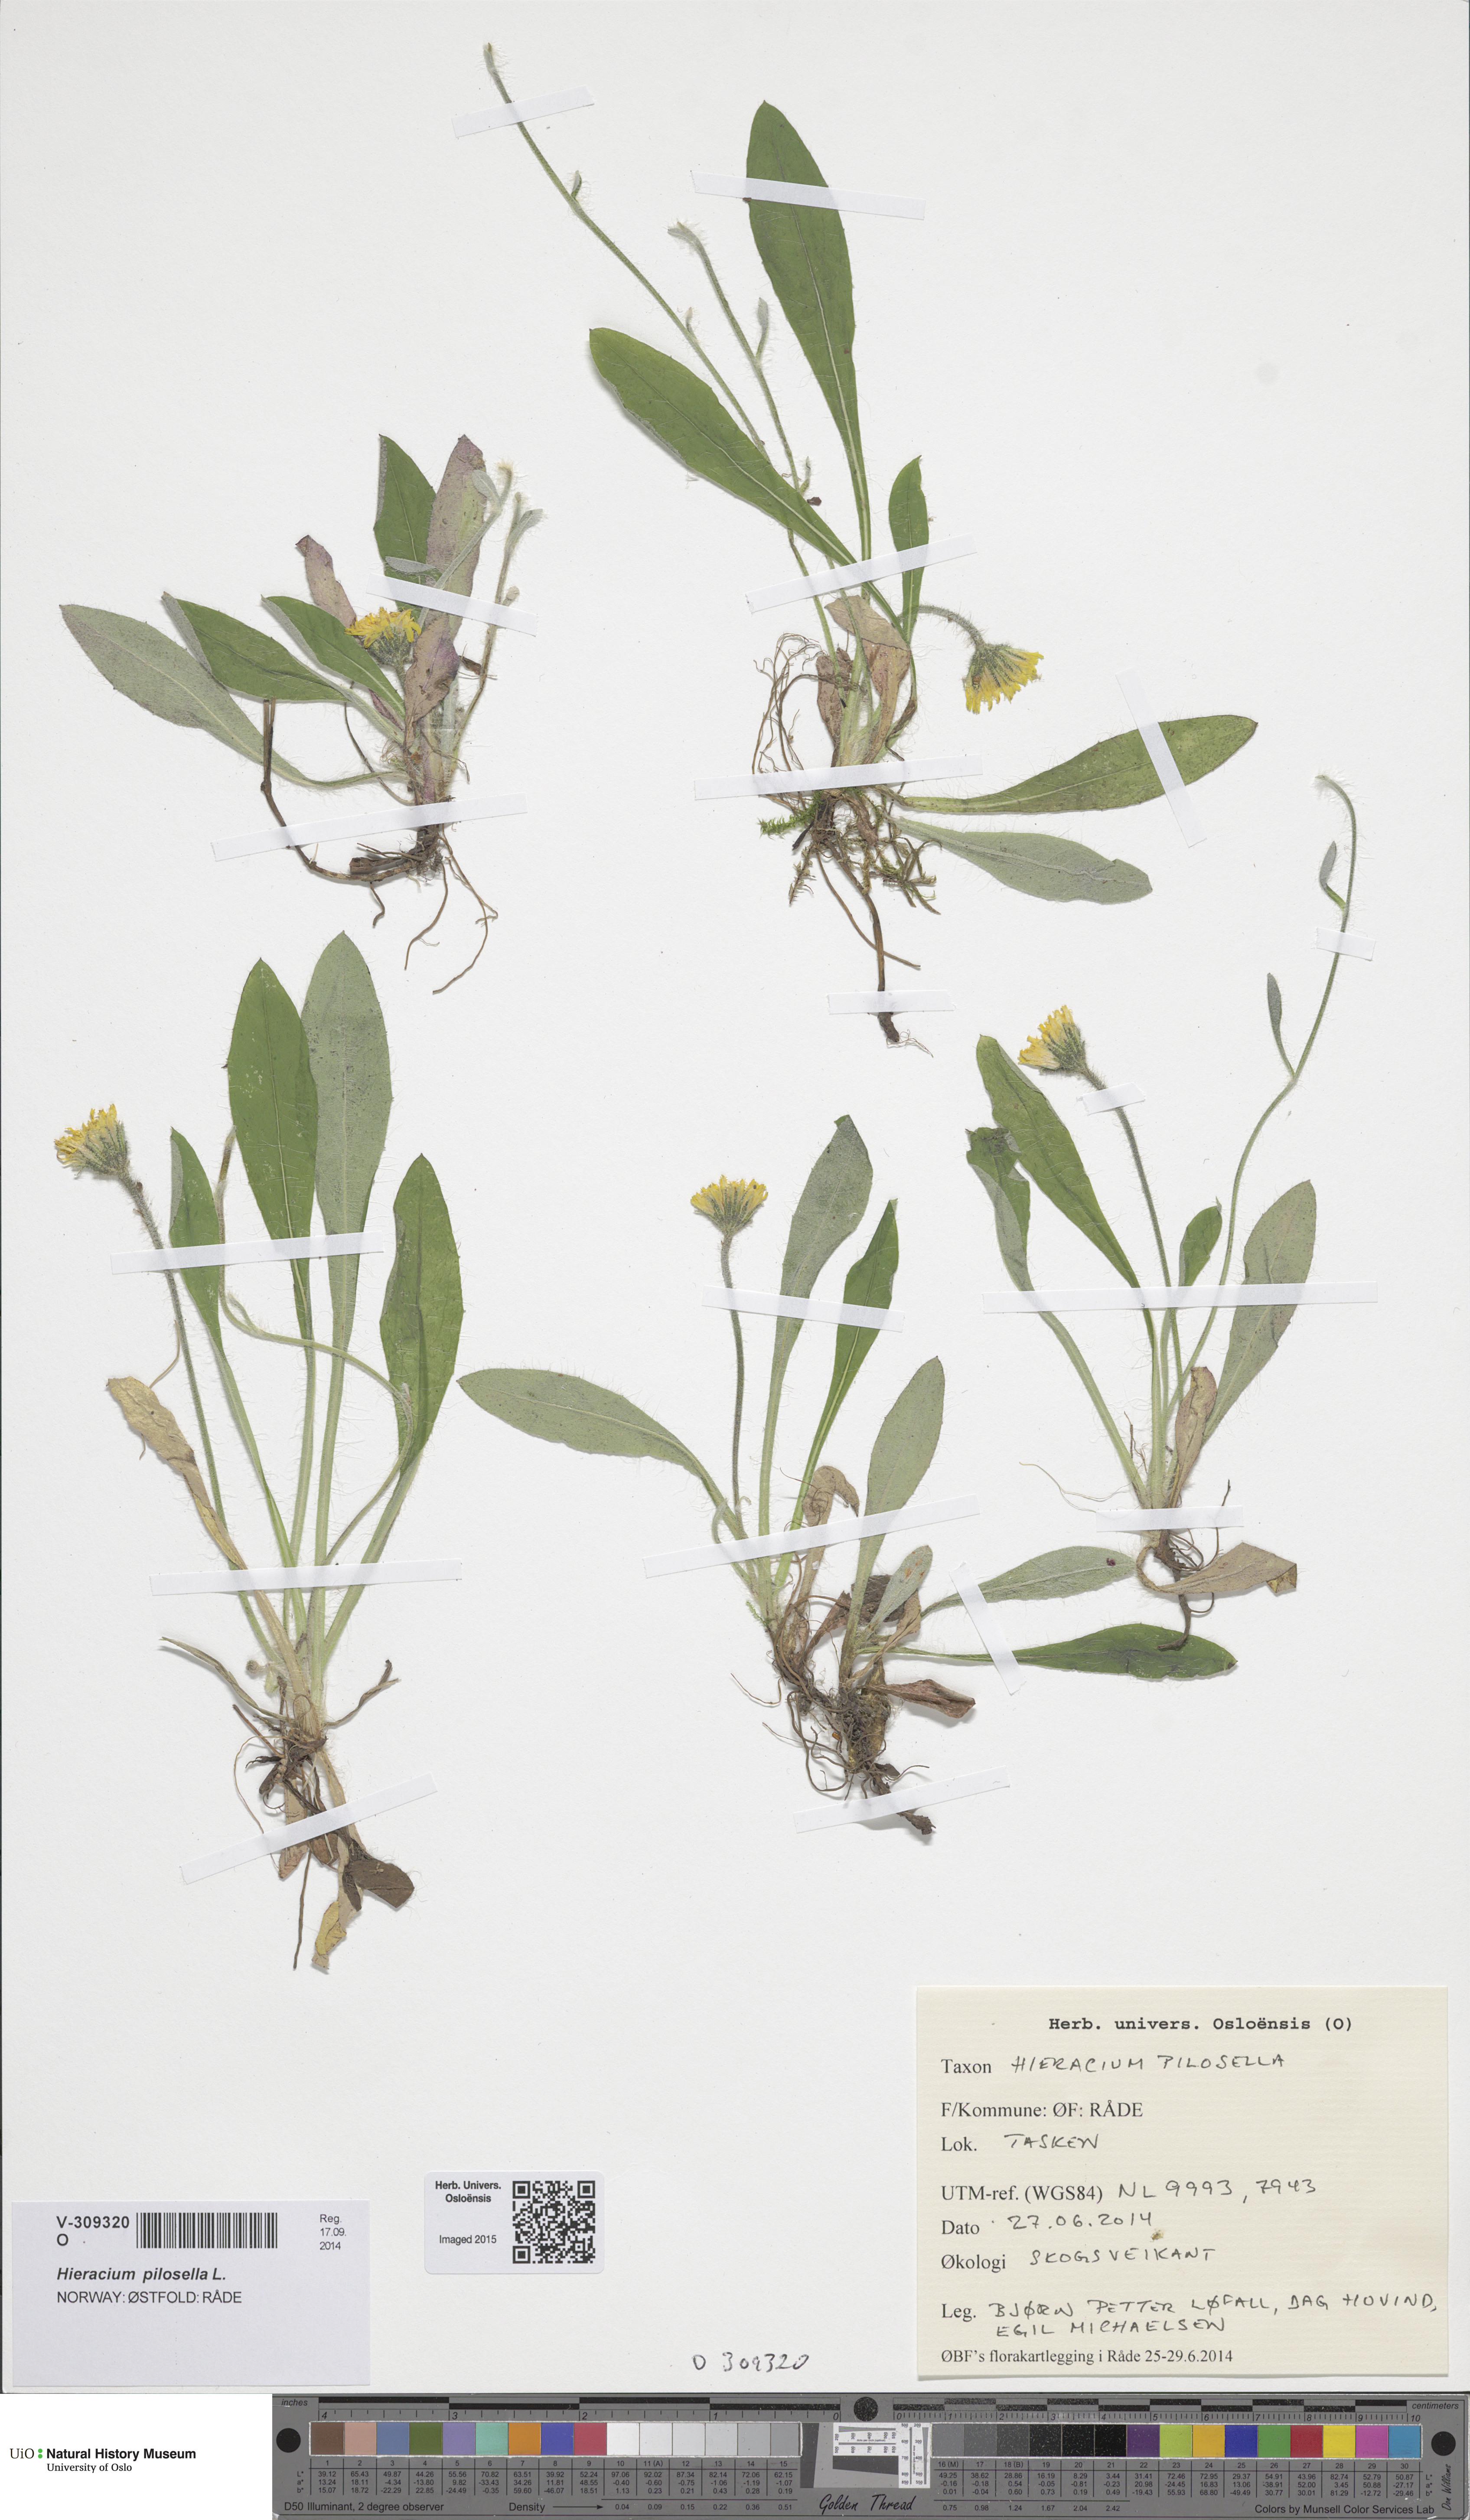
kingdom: Plantae
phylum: Tracheophyta
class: Magnoliopsida
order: Asterales
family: Asteraceae
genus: Pilosella
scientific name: Pilosella officinarum
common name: Mouse-ear hawkweed
